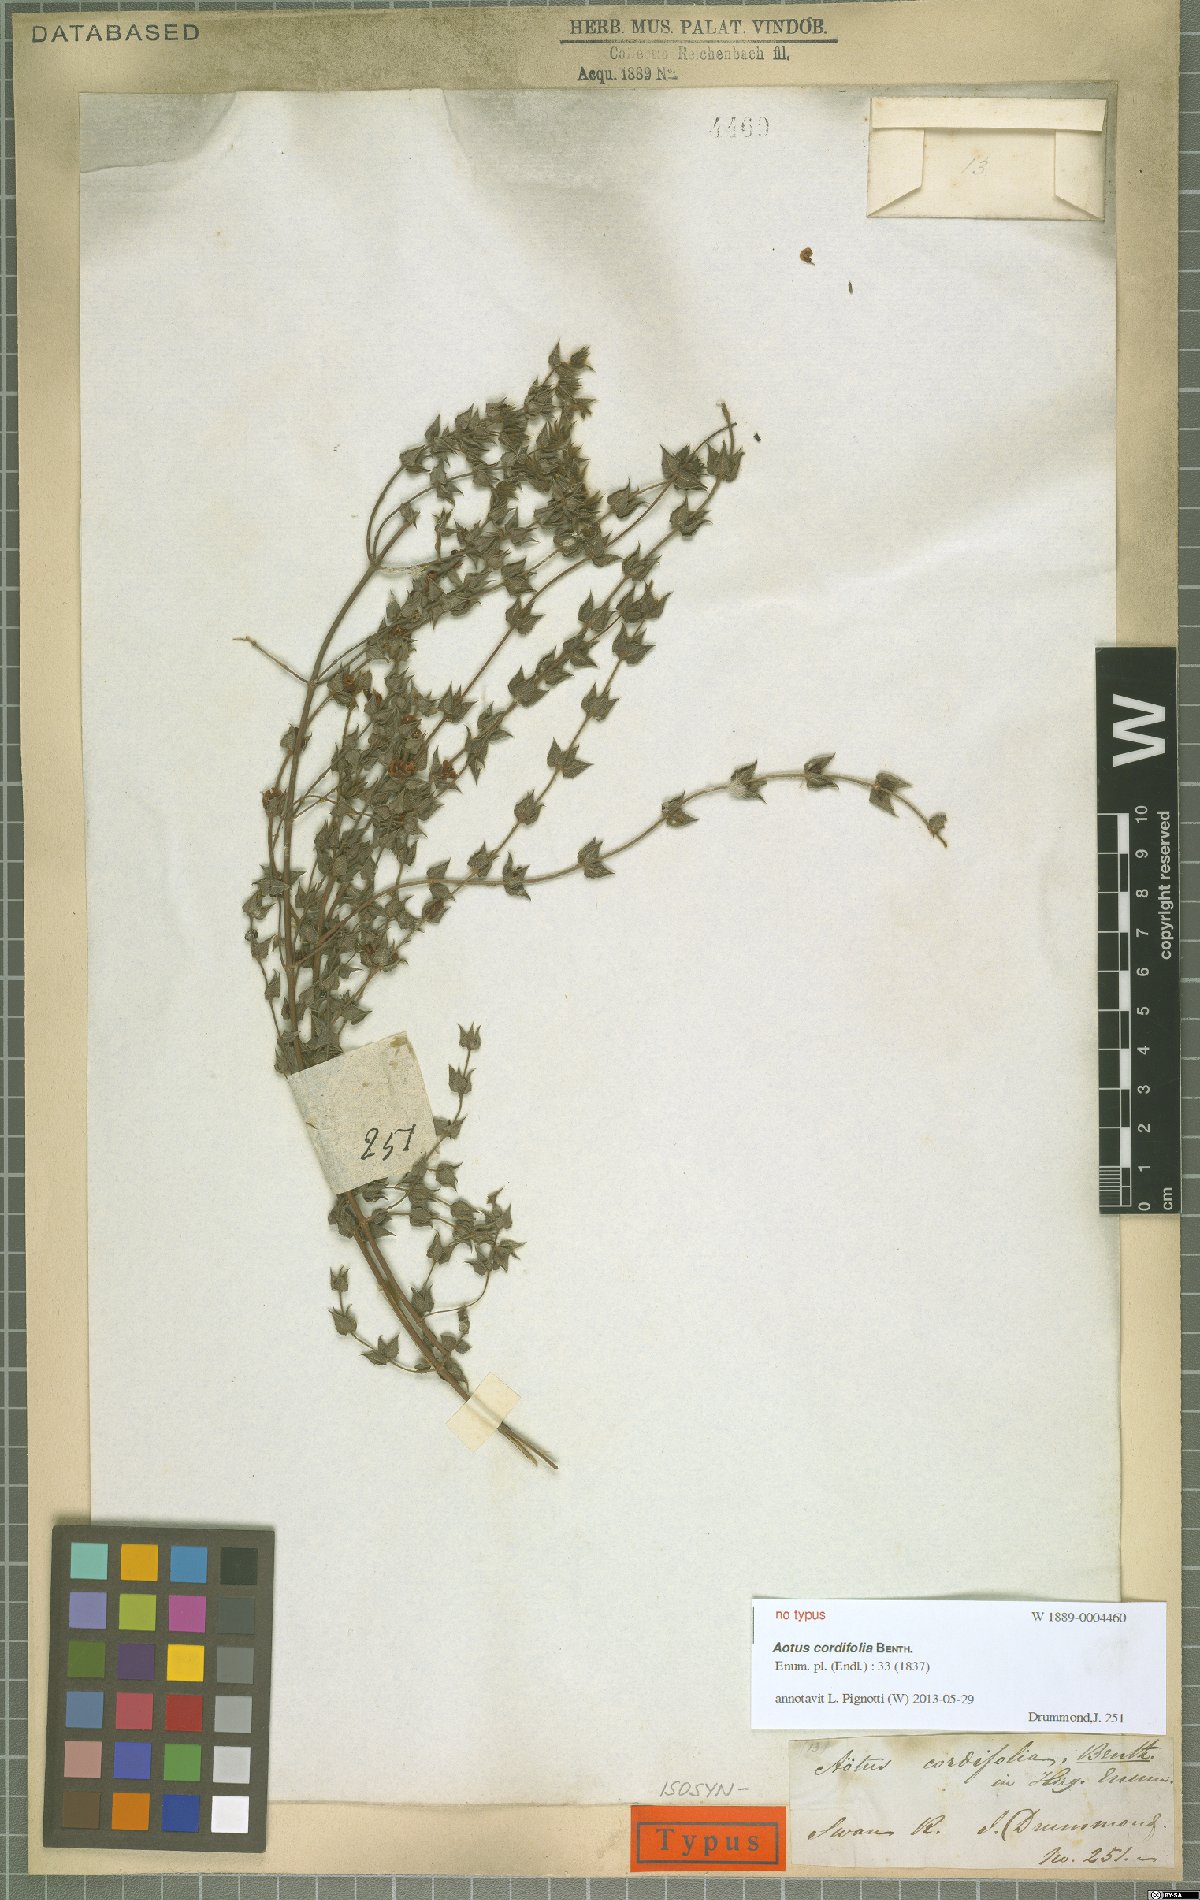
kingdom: Plantae
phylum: Tracheophyta
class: Magnoliopsida
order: Fabales
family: Fabaceae
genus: Aotus
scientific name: Aotus cordifolia
